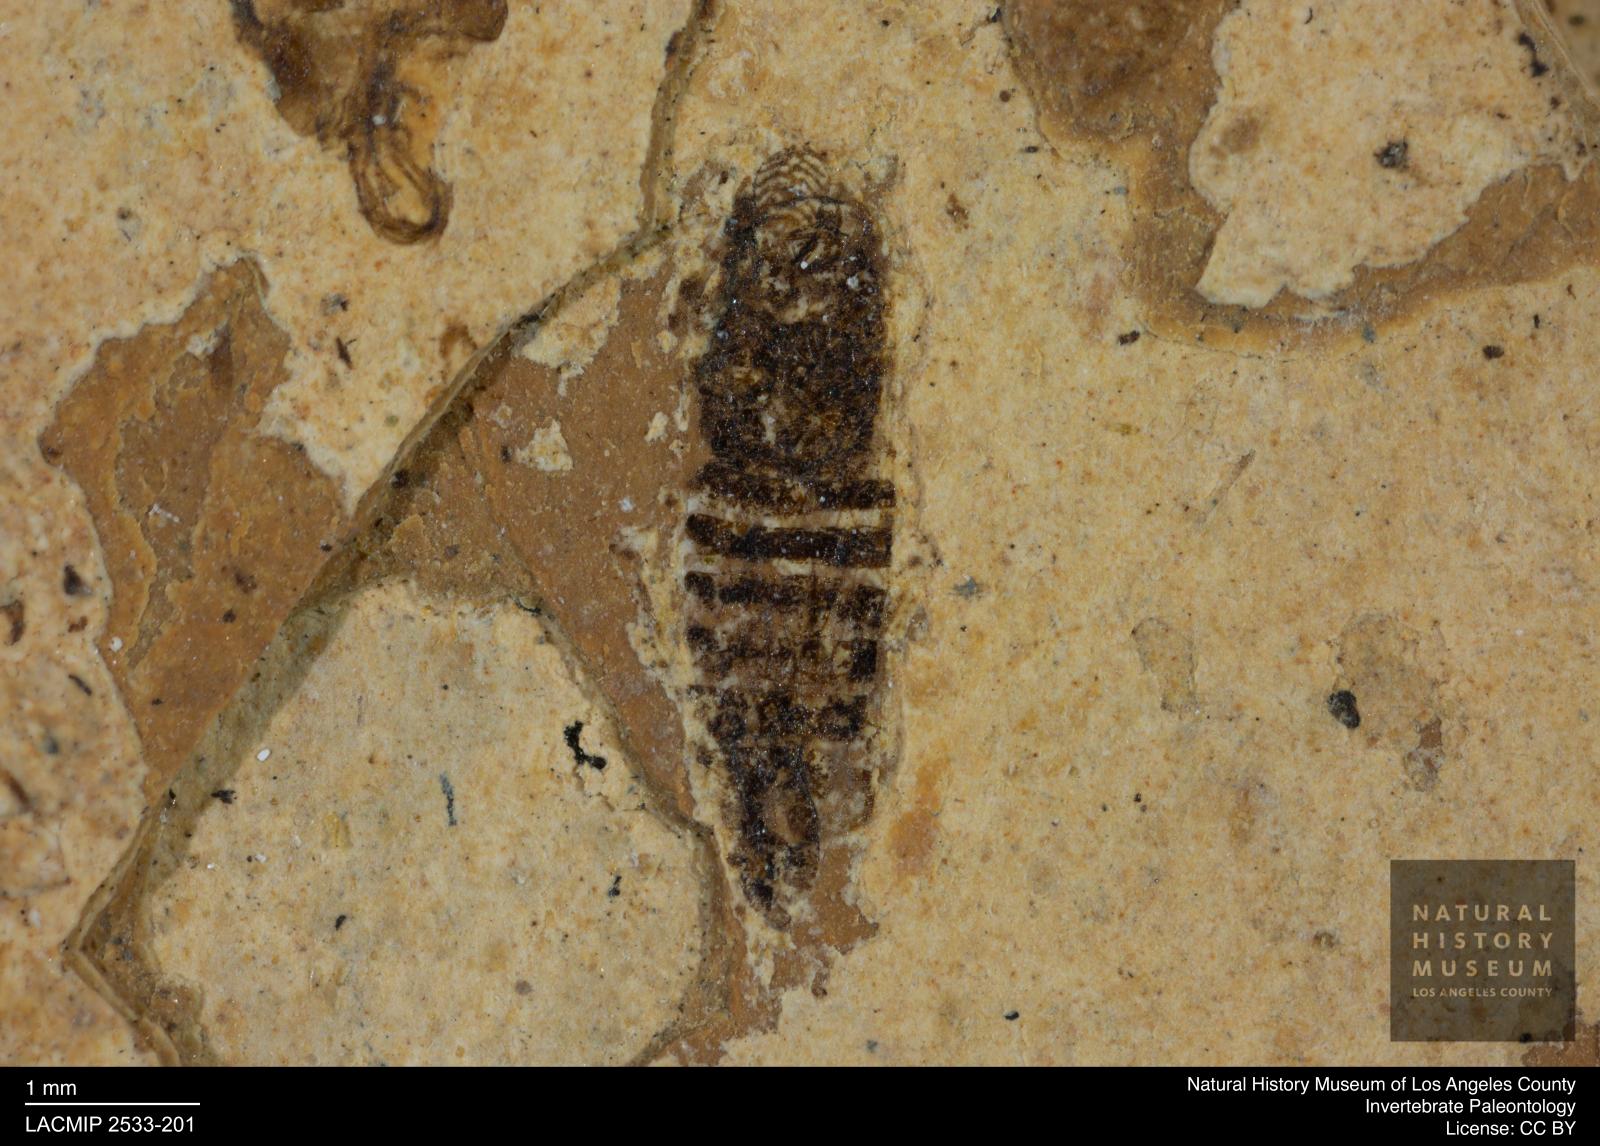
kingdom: Animalia
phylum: Arthropoda
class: Insecta
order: Hemiptera
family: Cicadellidae
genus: Thamnotettix
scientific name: Thamnotettix gracilentus
